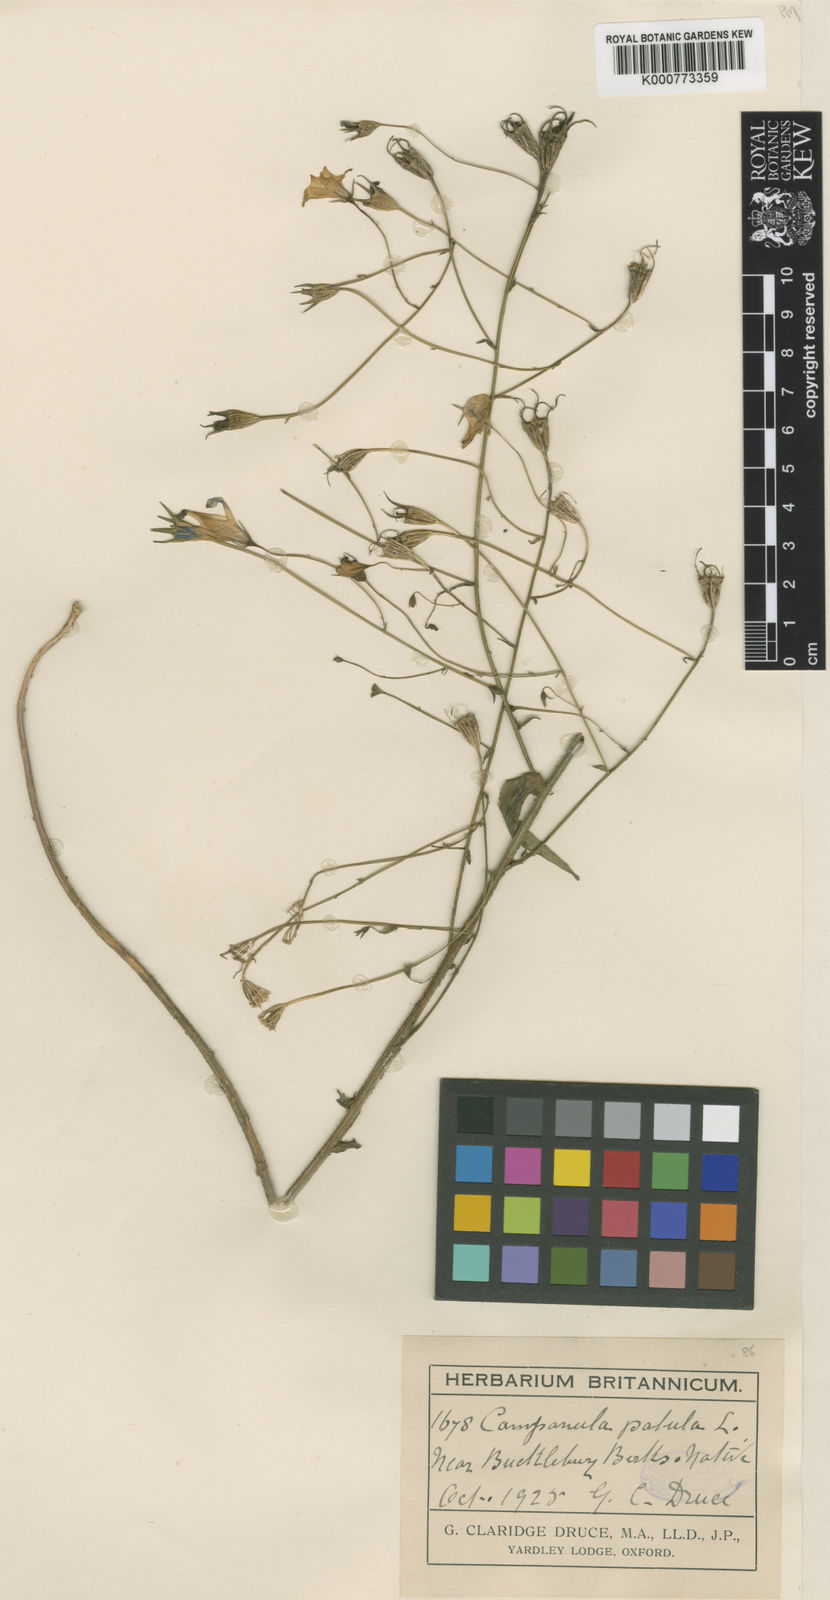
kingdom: Plantae
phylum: Tracheophyta
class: Magnoliopsida
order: Asterales
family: Campanulaceae
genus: Campanula
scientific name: Campanula patula
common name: Spreading bellflower
